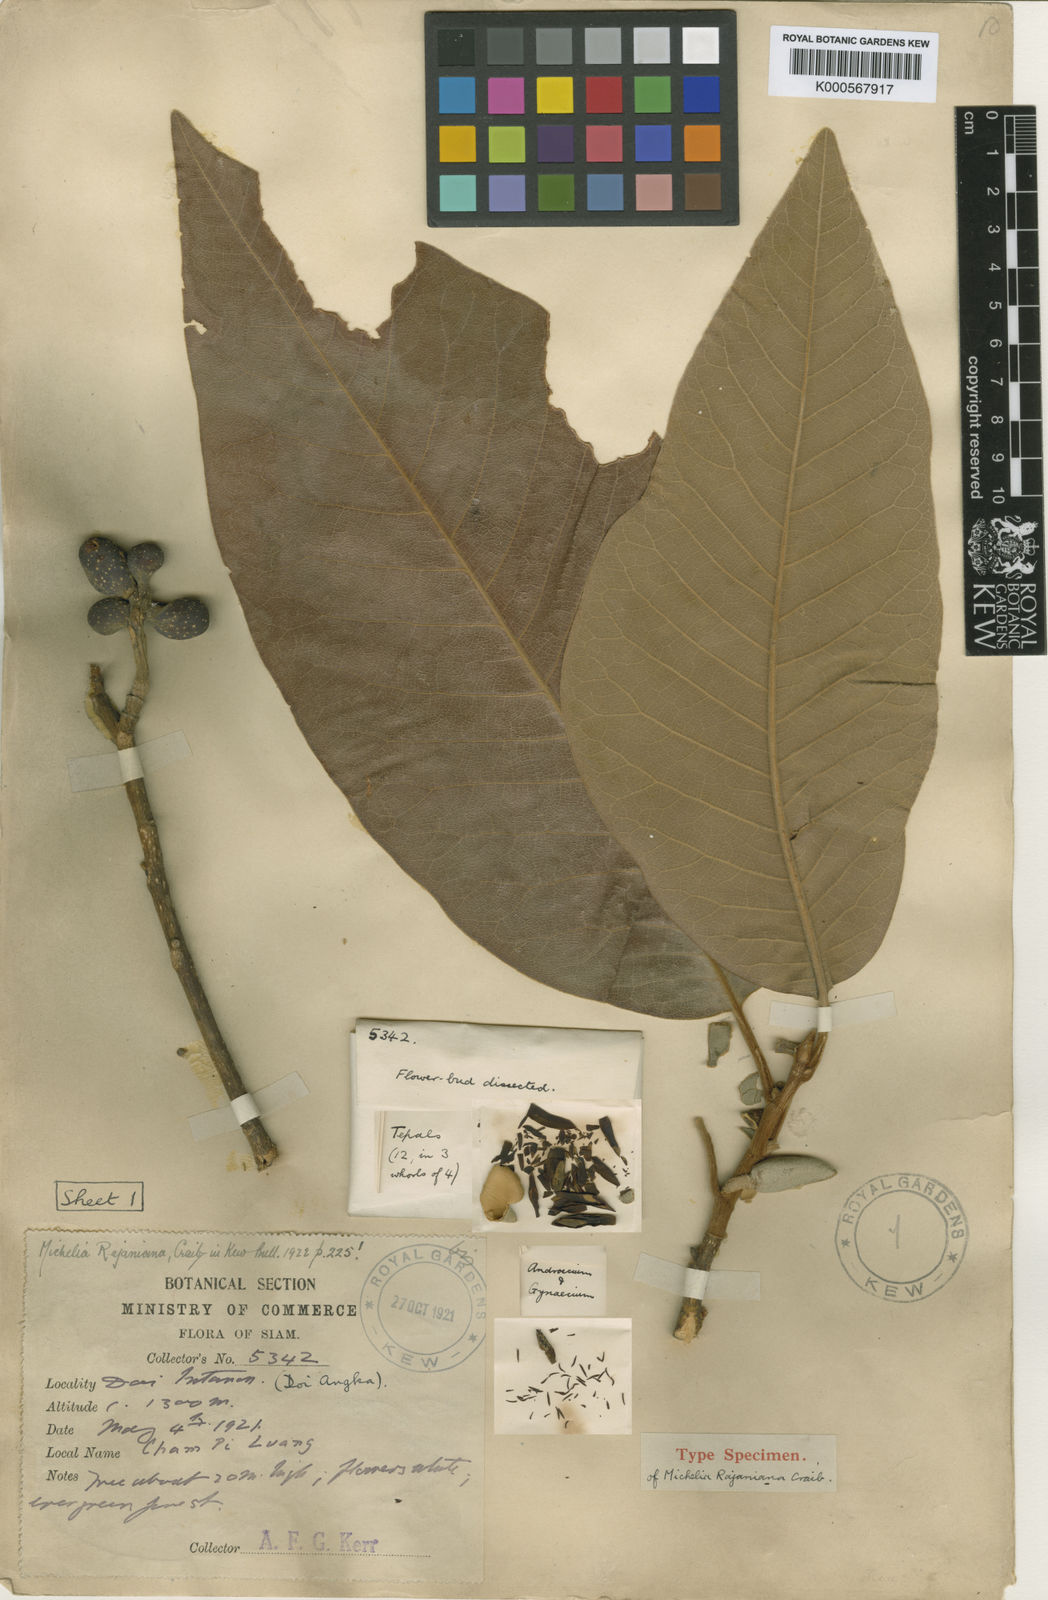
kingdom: Plantae
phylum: Tracheophyta
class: Magnoliopsida
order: Magnoliales
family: Magnoliaceae
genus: Magnolia
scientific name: Magnolia rajaniana
